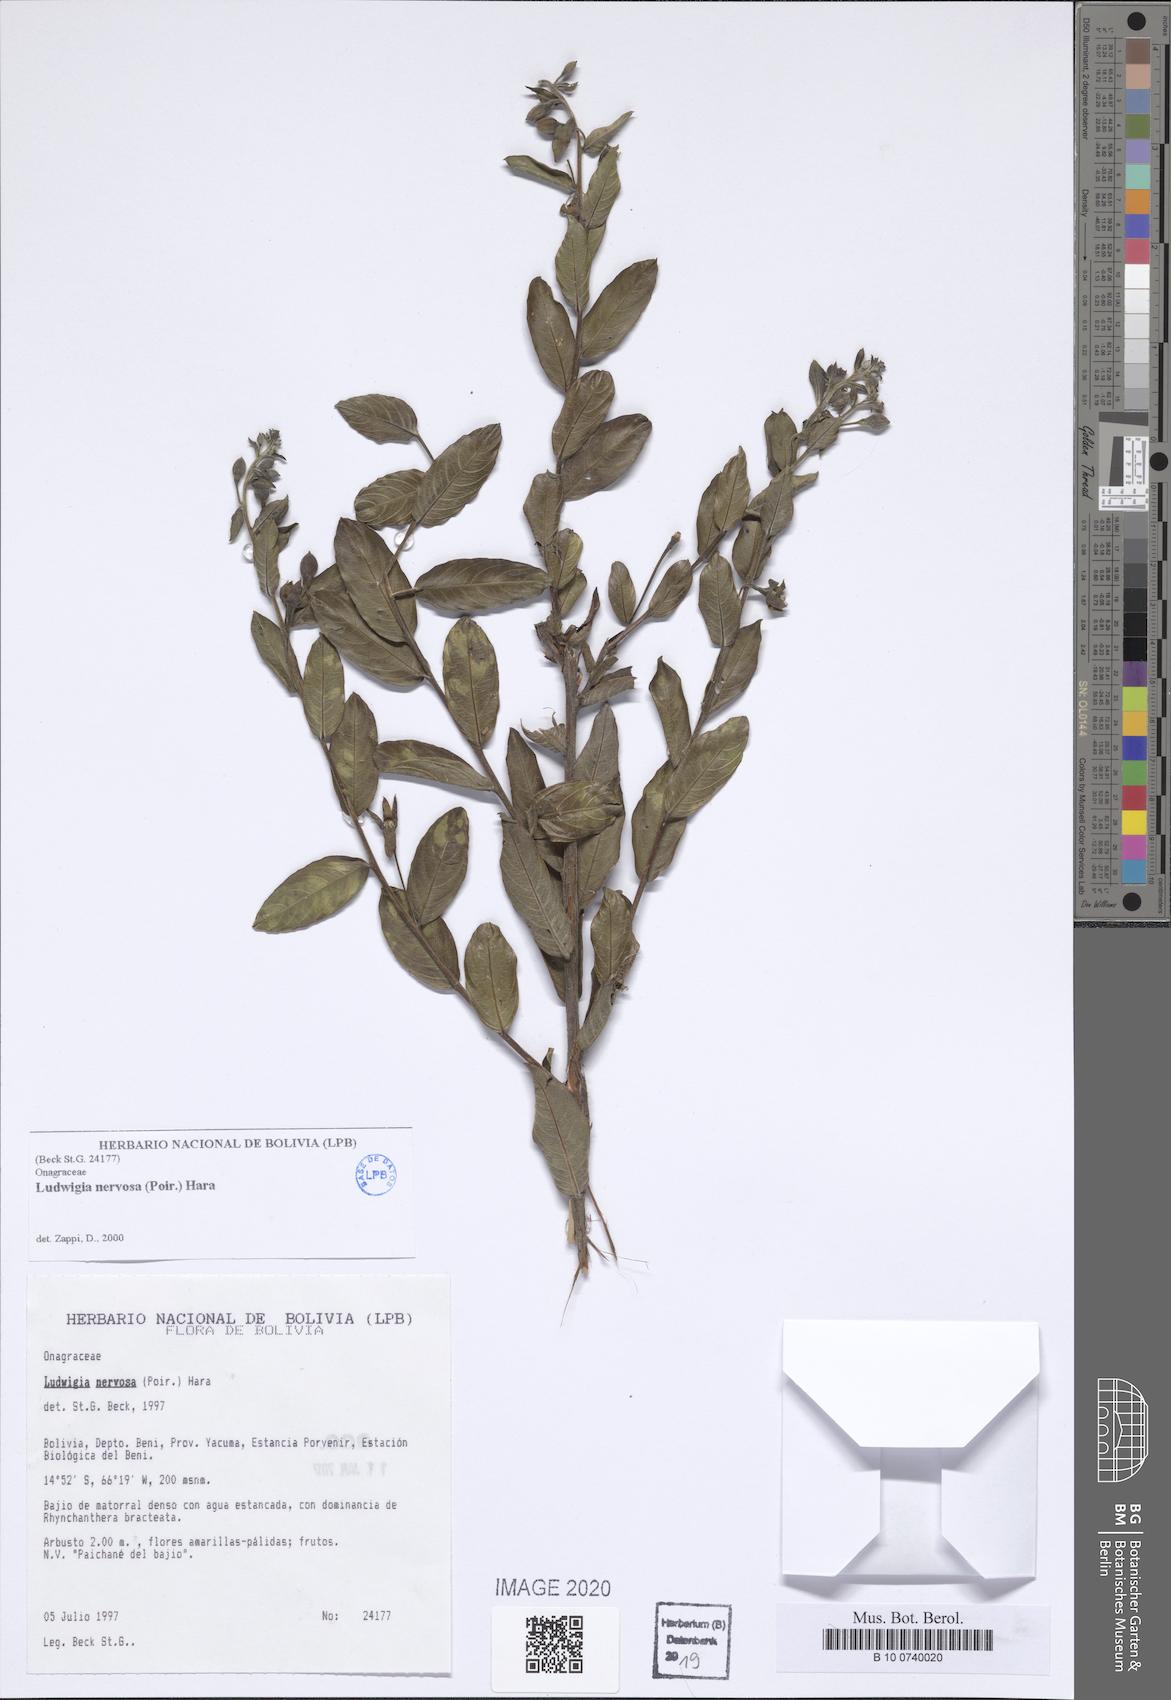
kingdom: Plantae
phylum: Tracheophyta
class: Magnoliopsida
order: Myrtales
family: Onagraceae
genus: Ludwigia
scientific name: Ludwigia nervosa
